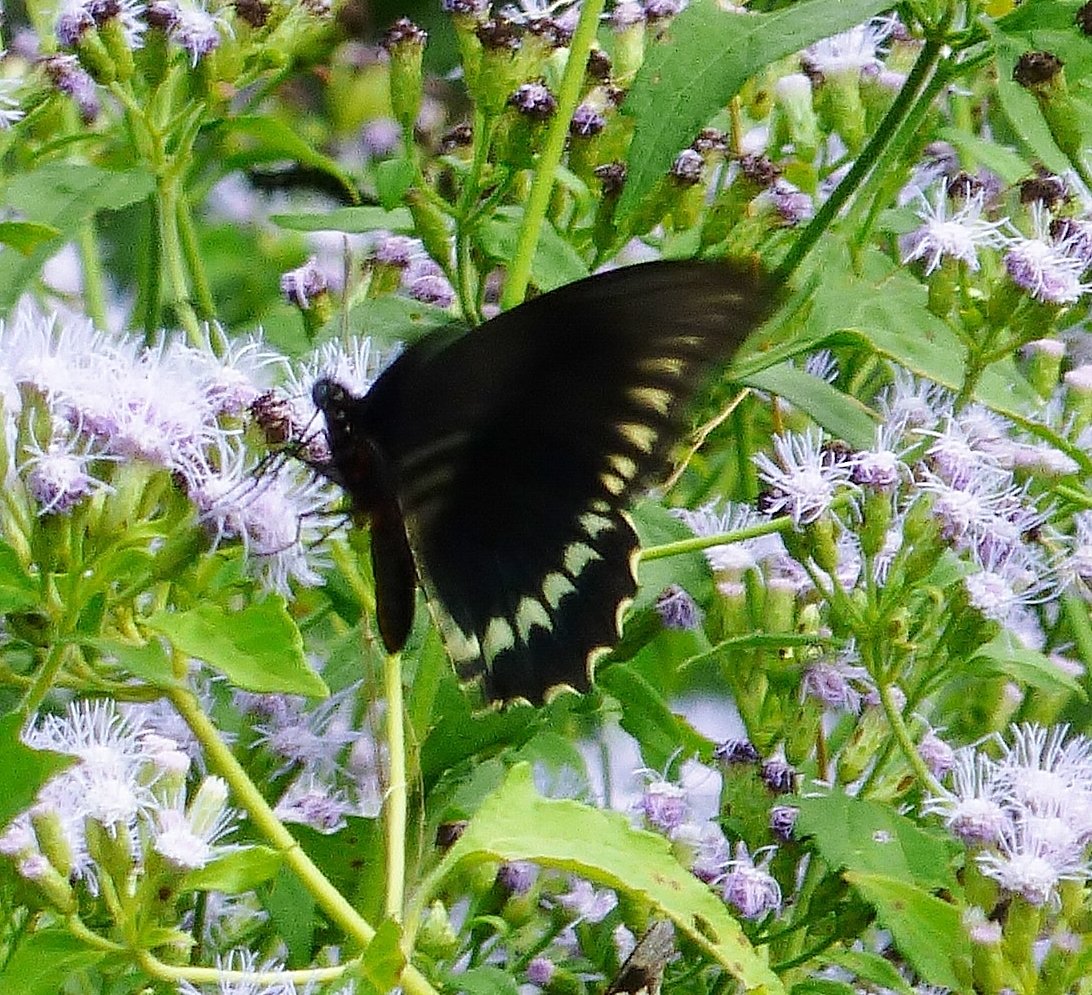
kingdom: Animalia
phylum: Arthropoda
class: Insecta
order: Lepidoptera
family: Papilionidae
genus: Battus
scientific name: Battus polydamas
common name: Polydamas Swallowtail
